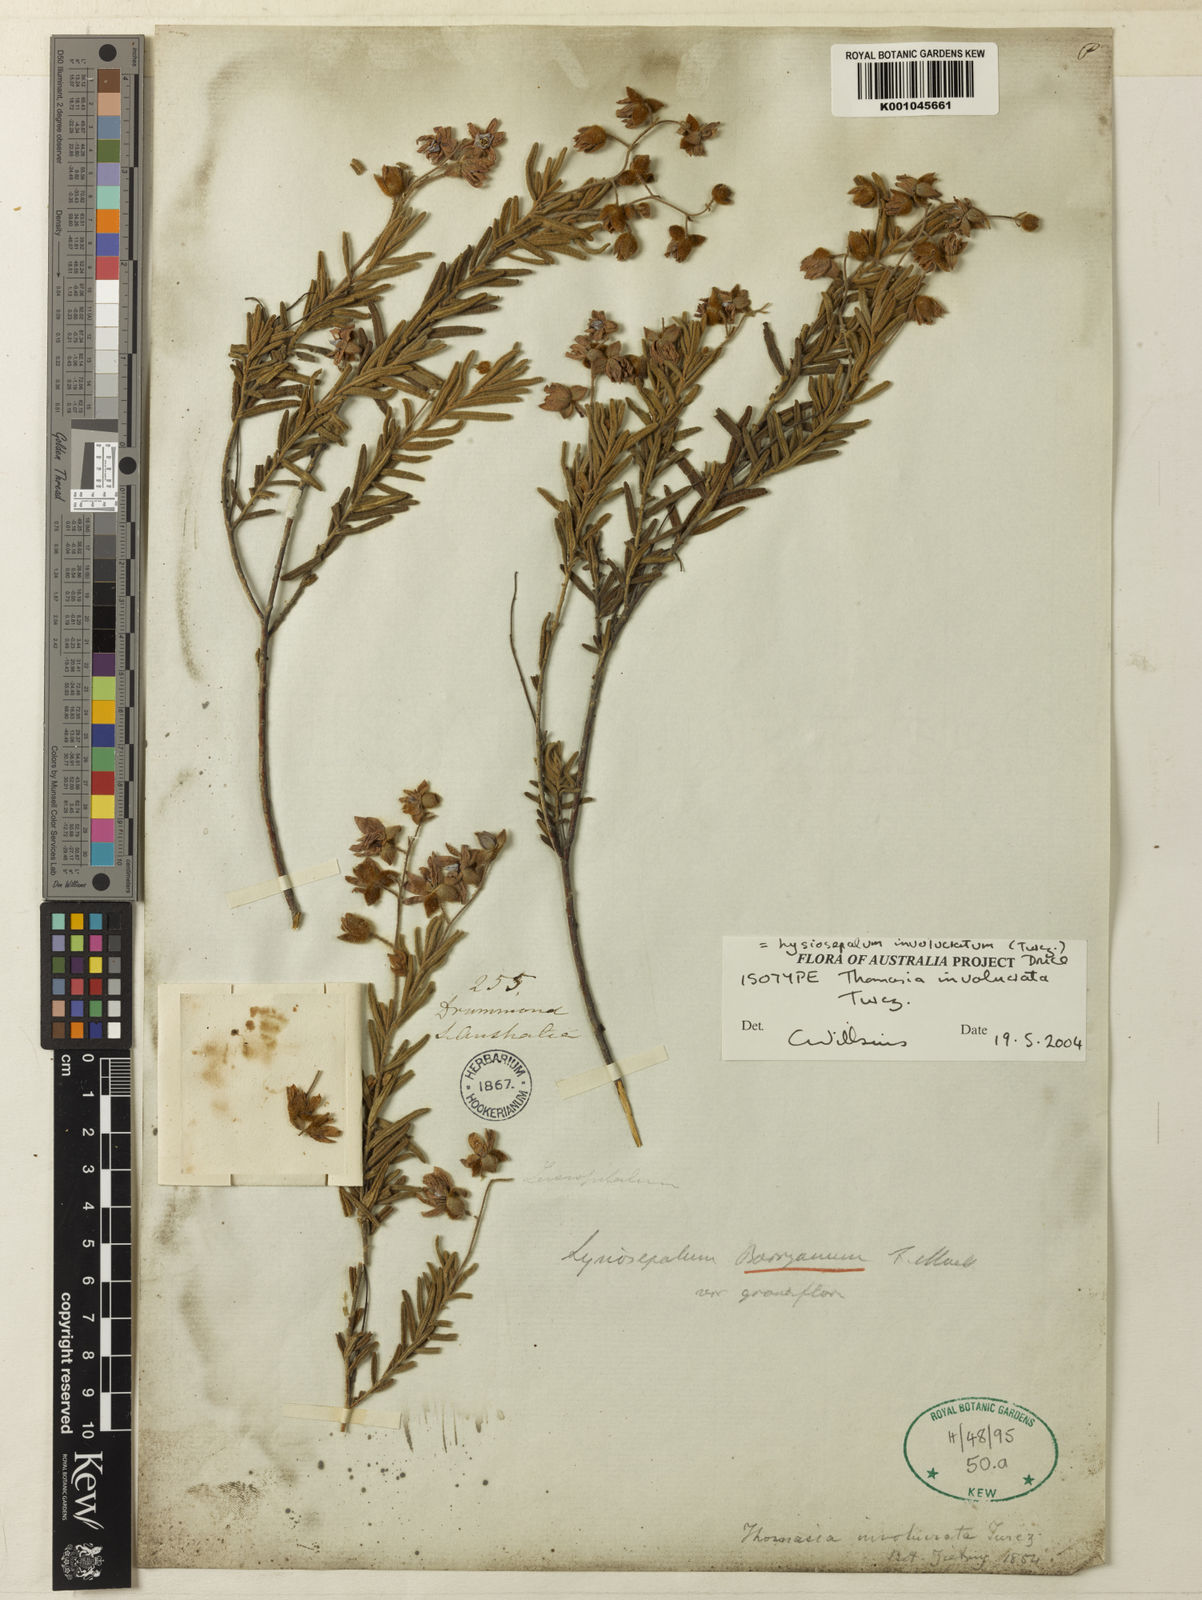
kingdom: Plantae
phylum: Tracheophyta
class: Magnoliopsida
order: Malvales
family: Malvaceae
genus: Lysiosepalum
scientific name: Lysiosepalum
